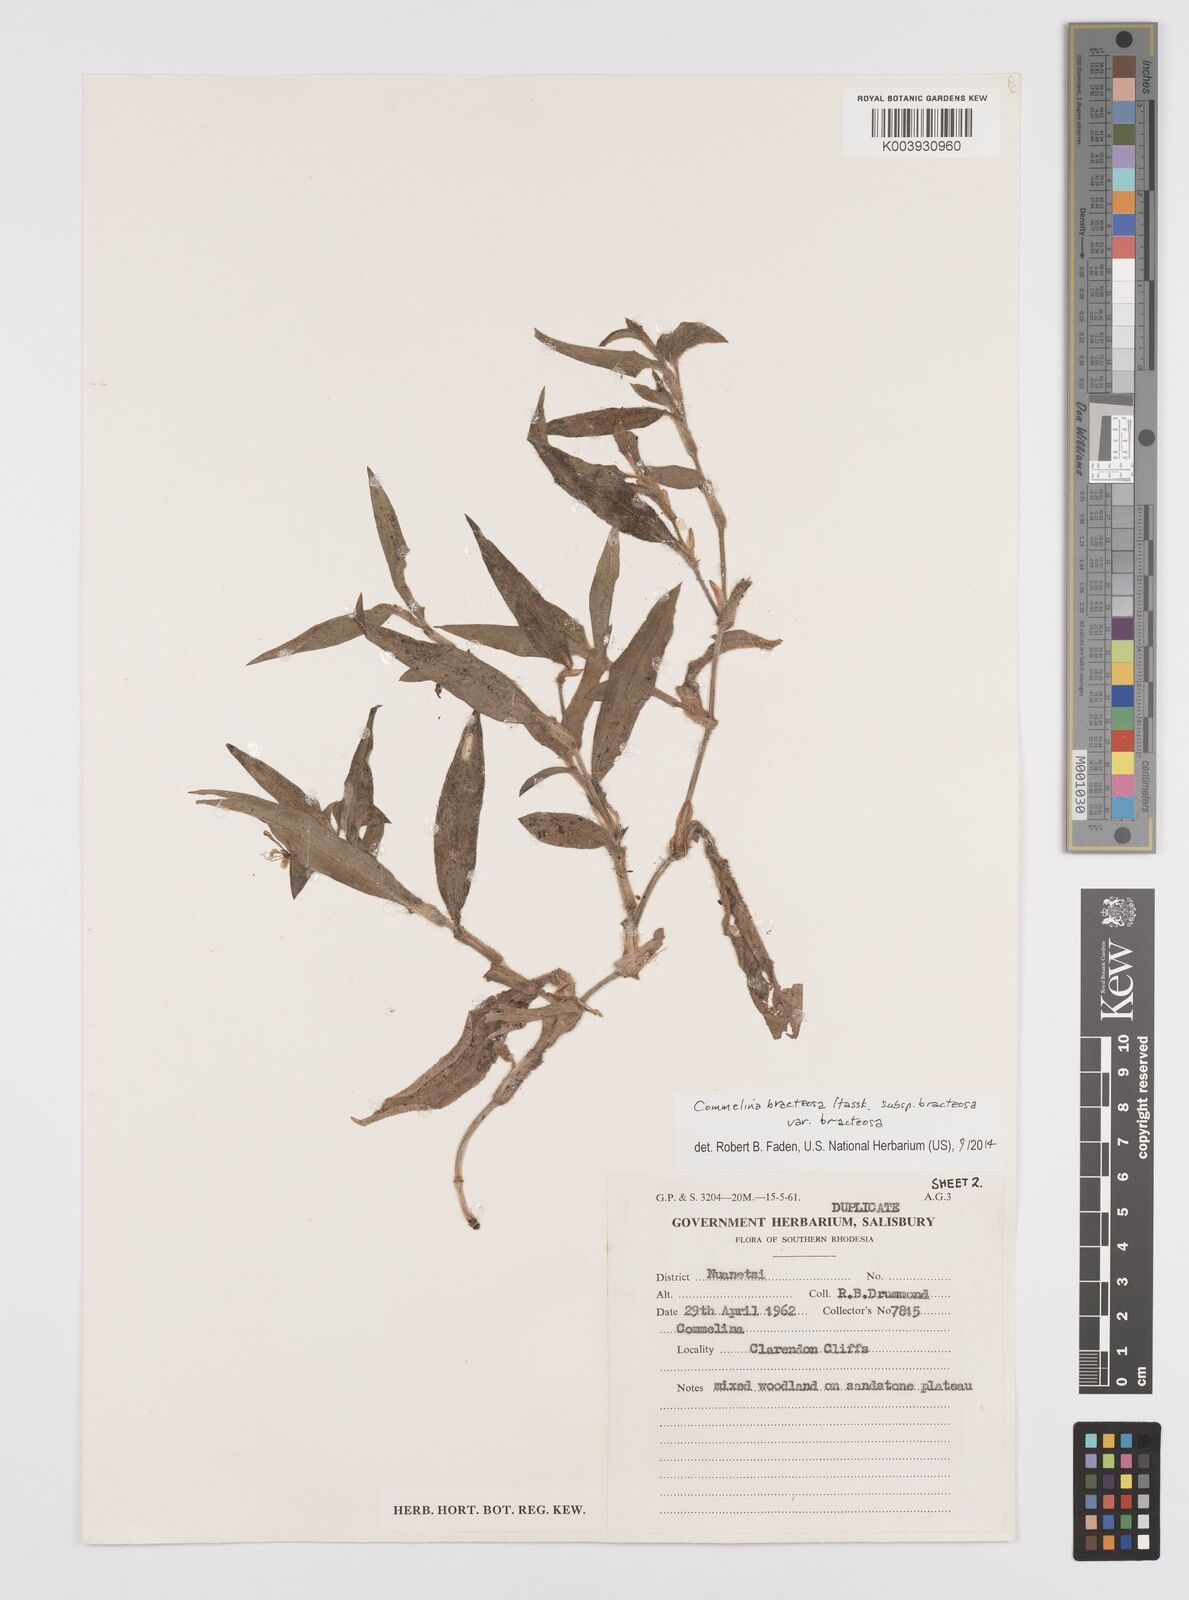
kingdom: Plantae
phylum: Tracheophyta
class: Liliopsida
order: Commelinales
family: Commelinaceae
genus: Commelina
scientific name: Commelina bracteosa
